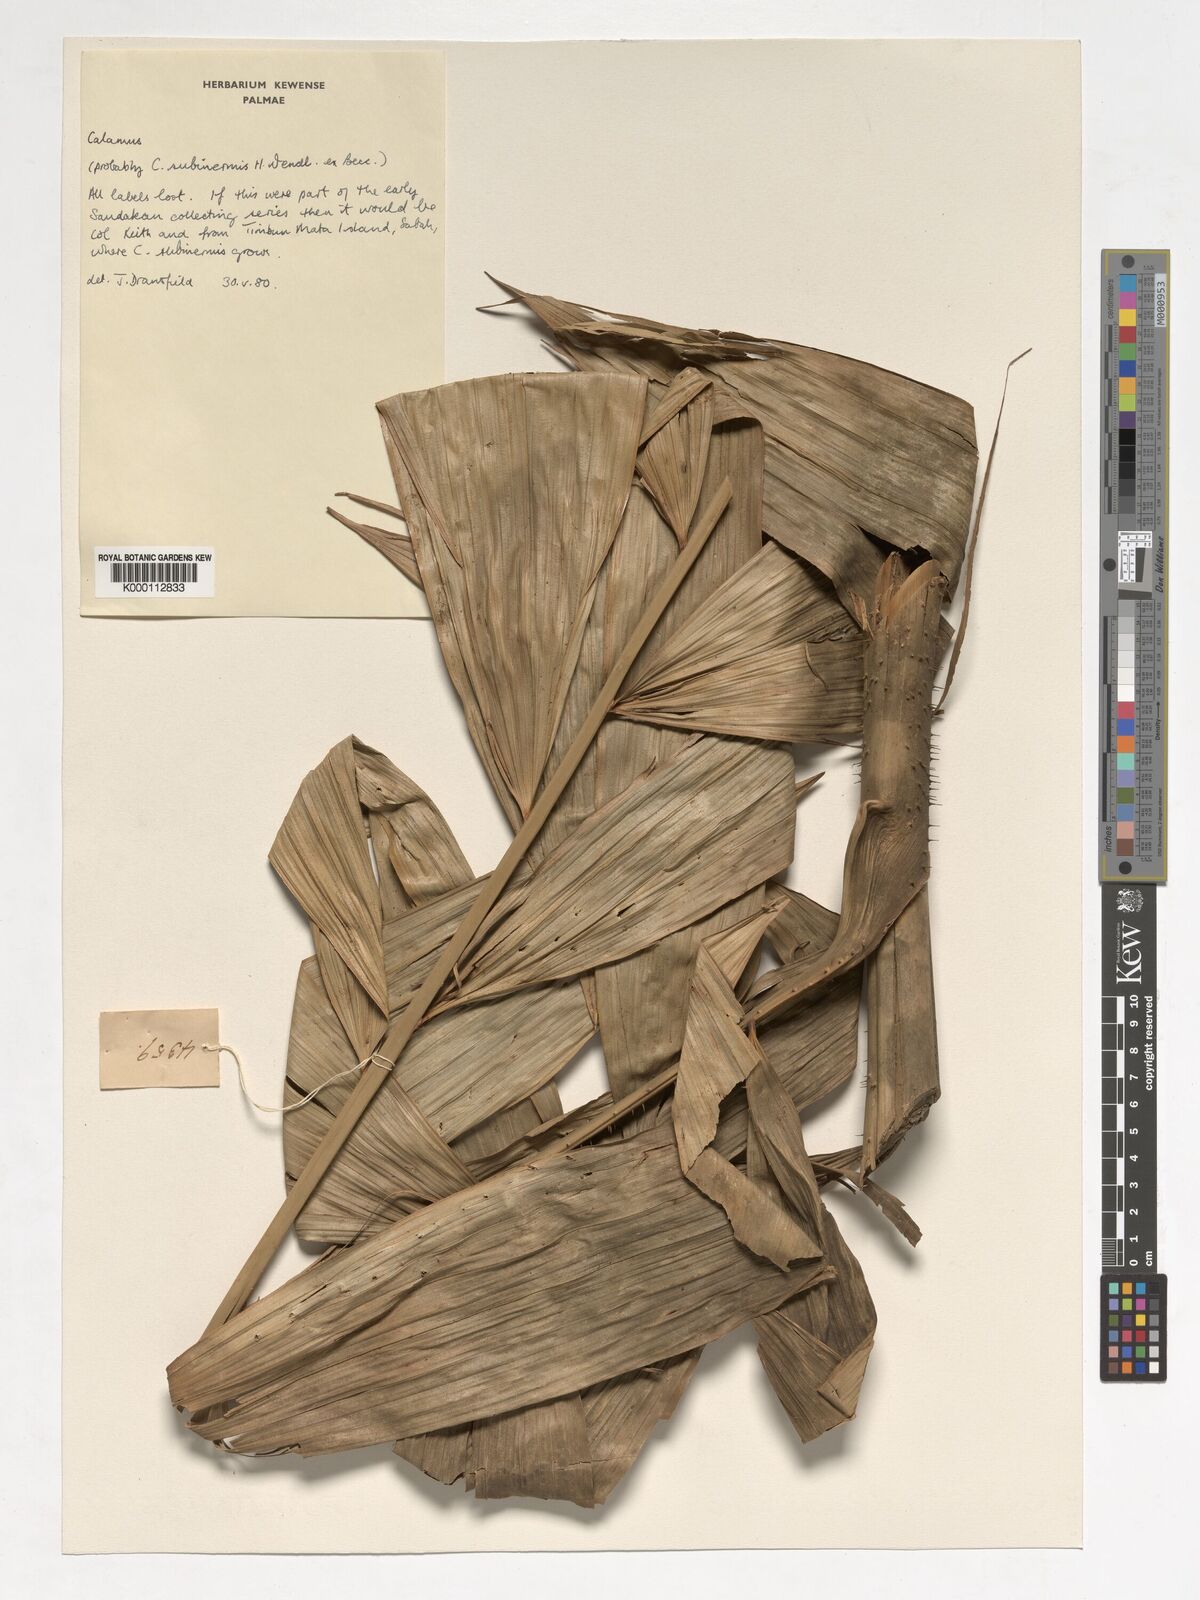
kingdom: Plantae
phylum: Tracheophyta
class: Liliopsida
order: Arecales
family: Arecaceae
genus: Calamus
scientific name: Calamus
